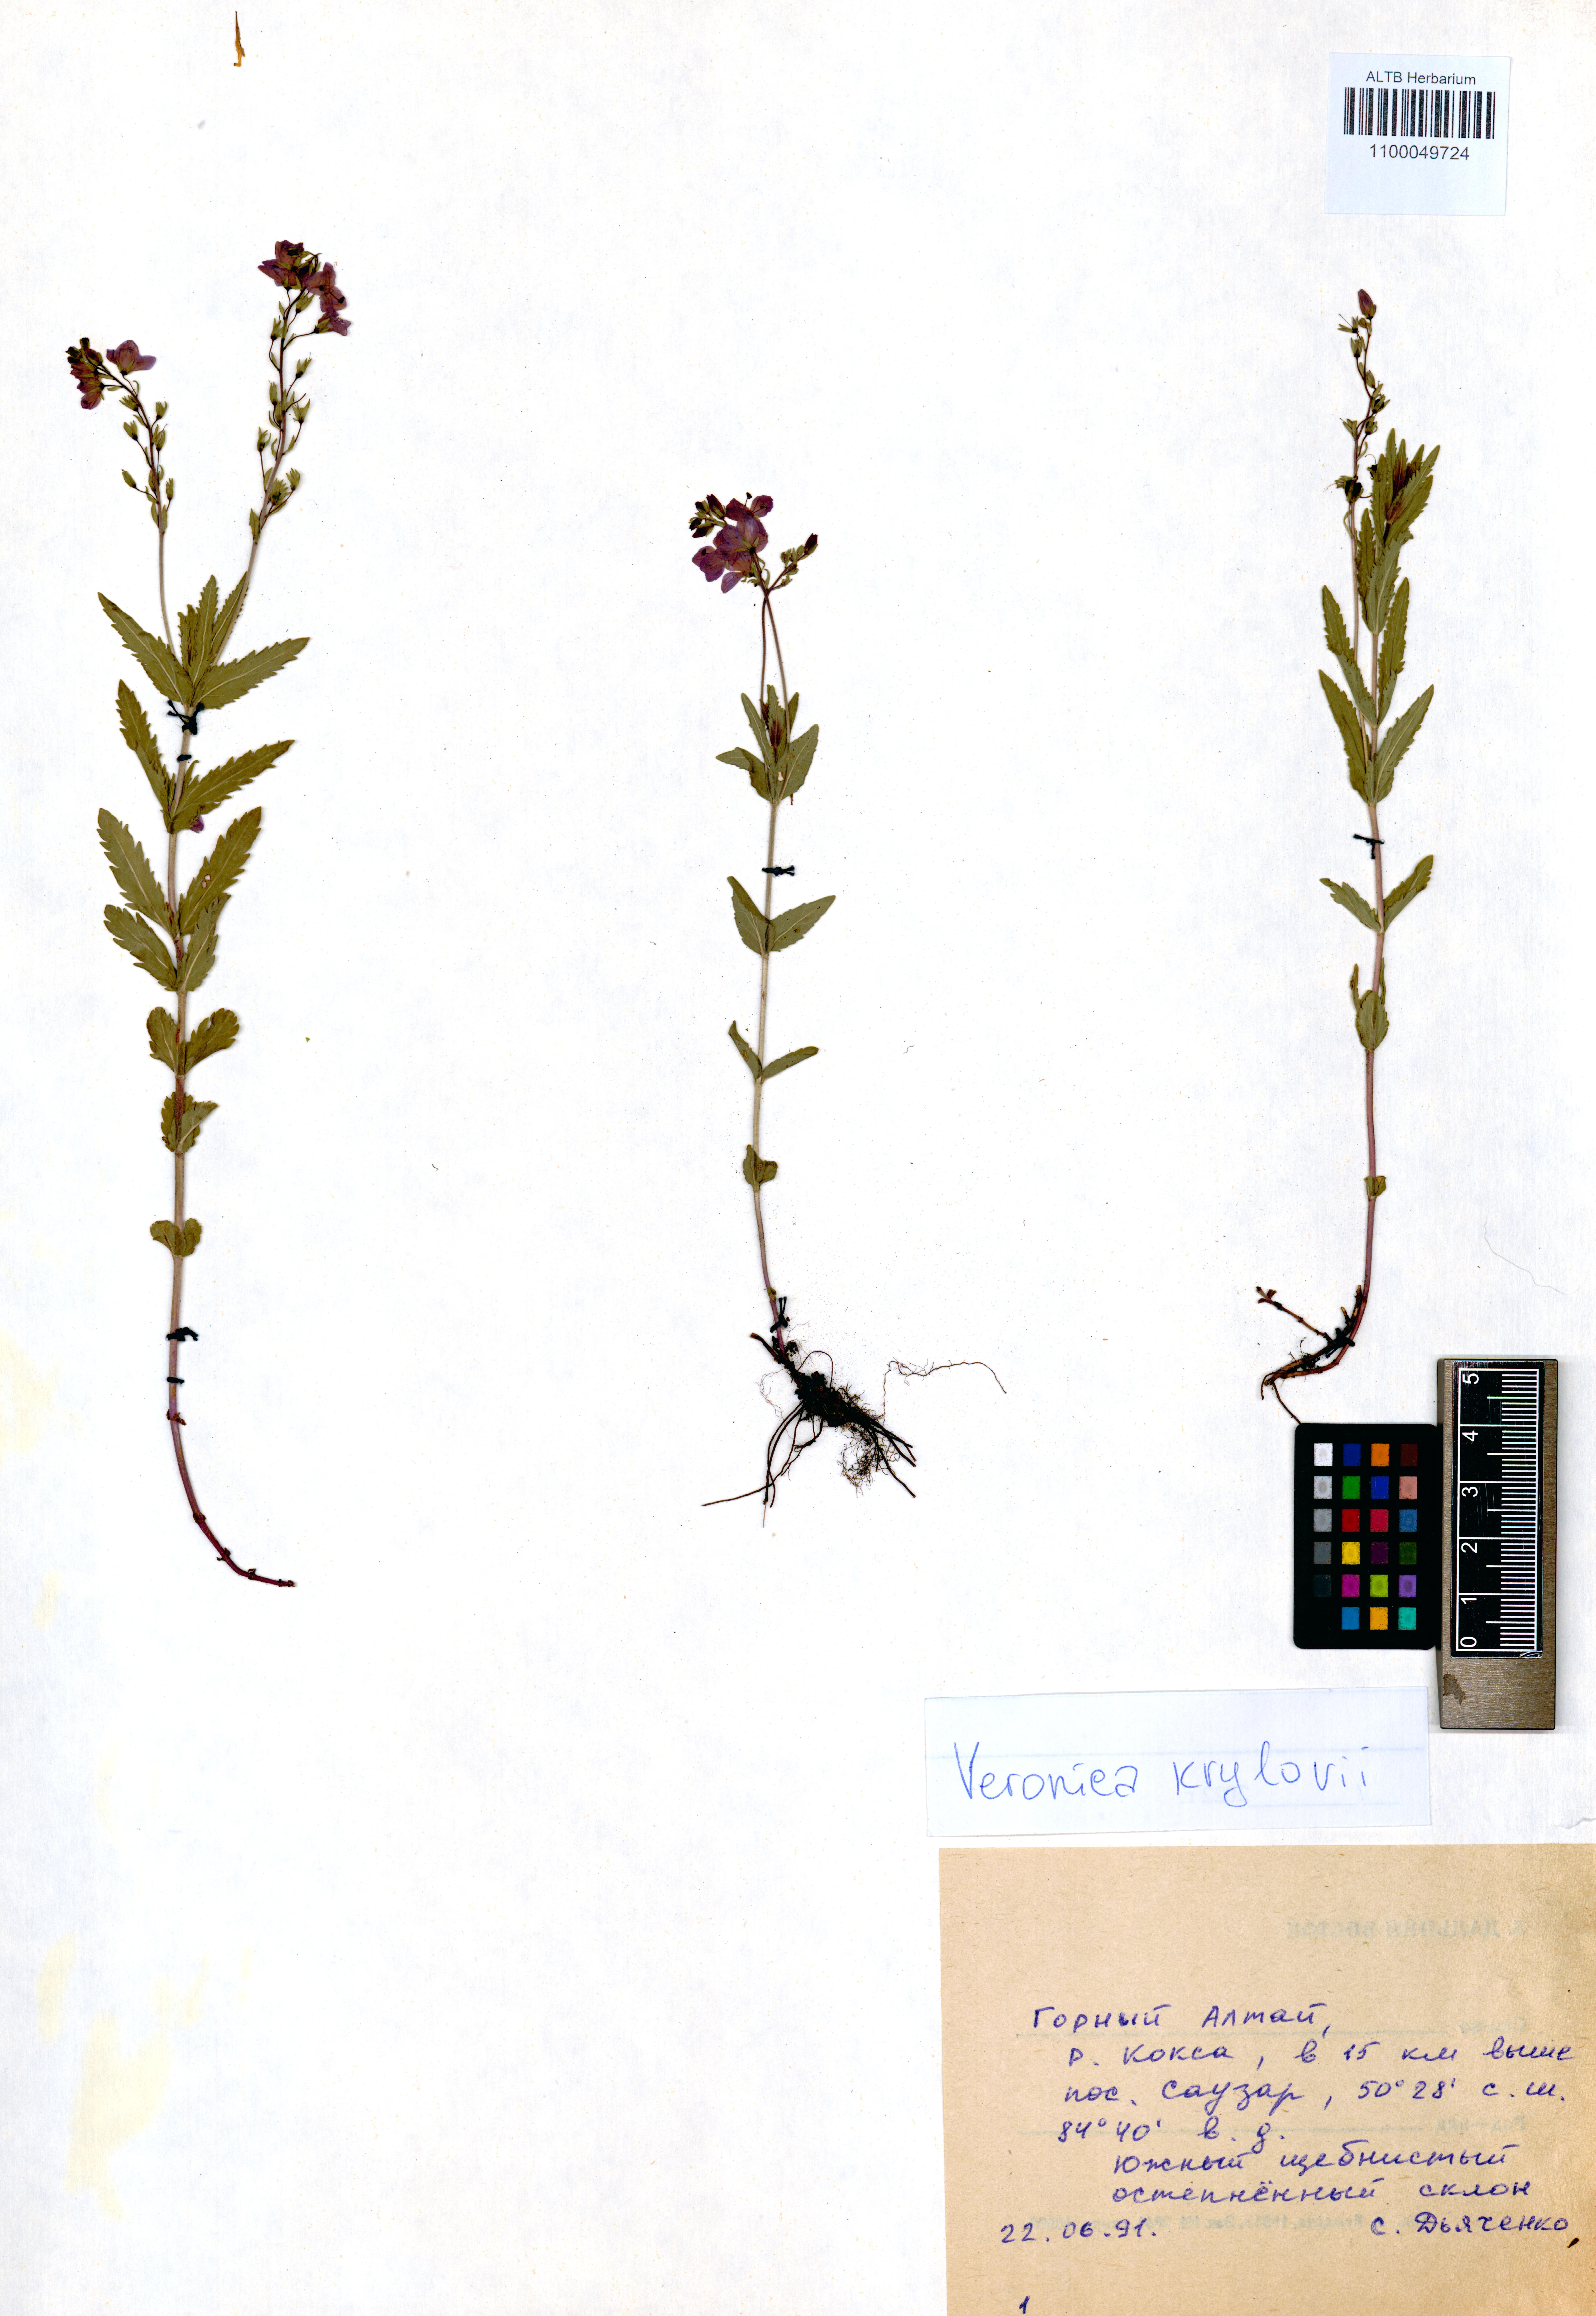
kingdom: Plantae
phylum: Tracheophyta
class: Magnoliopsida
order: Lamiales
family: Plantaginaceae
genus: Veronica
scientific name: Veronica krylovii
